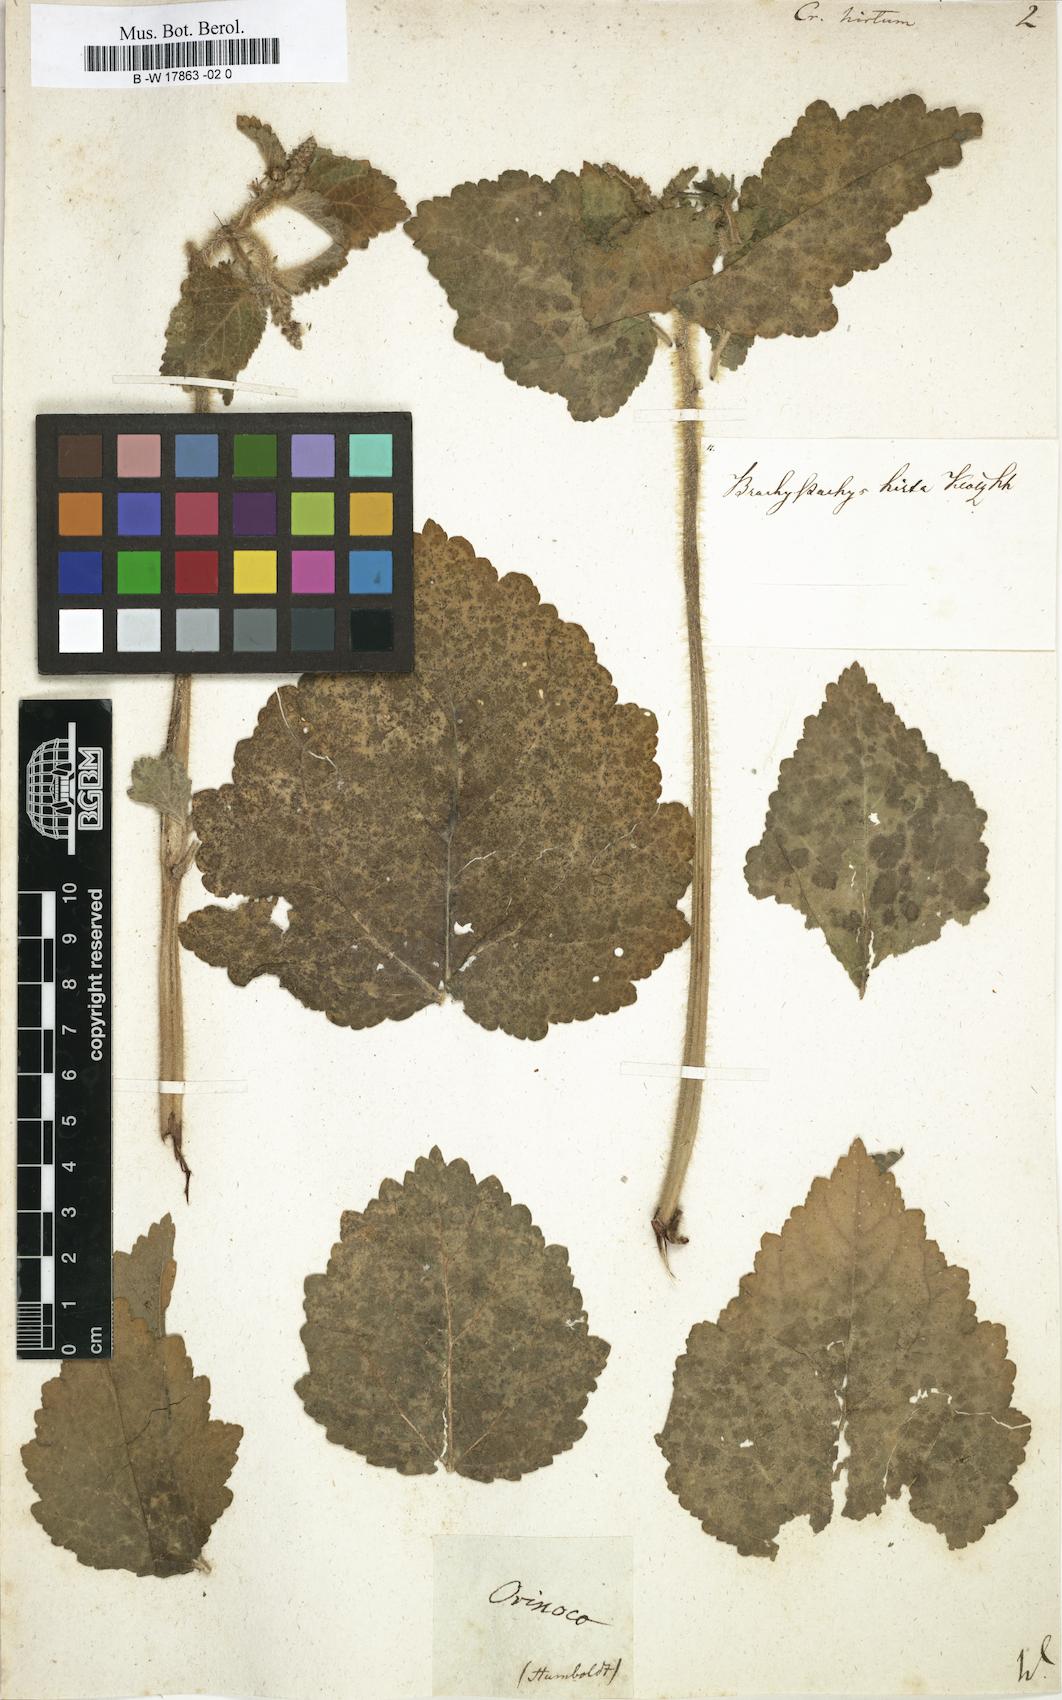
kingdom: Plantae
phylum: Tracheophyta
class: Magnoliopsida
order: Malpighiales
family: Euphorbiaceae
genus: Croton
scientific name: Croton hirtus
